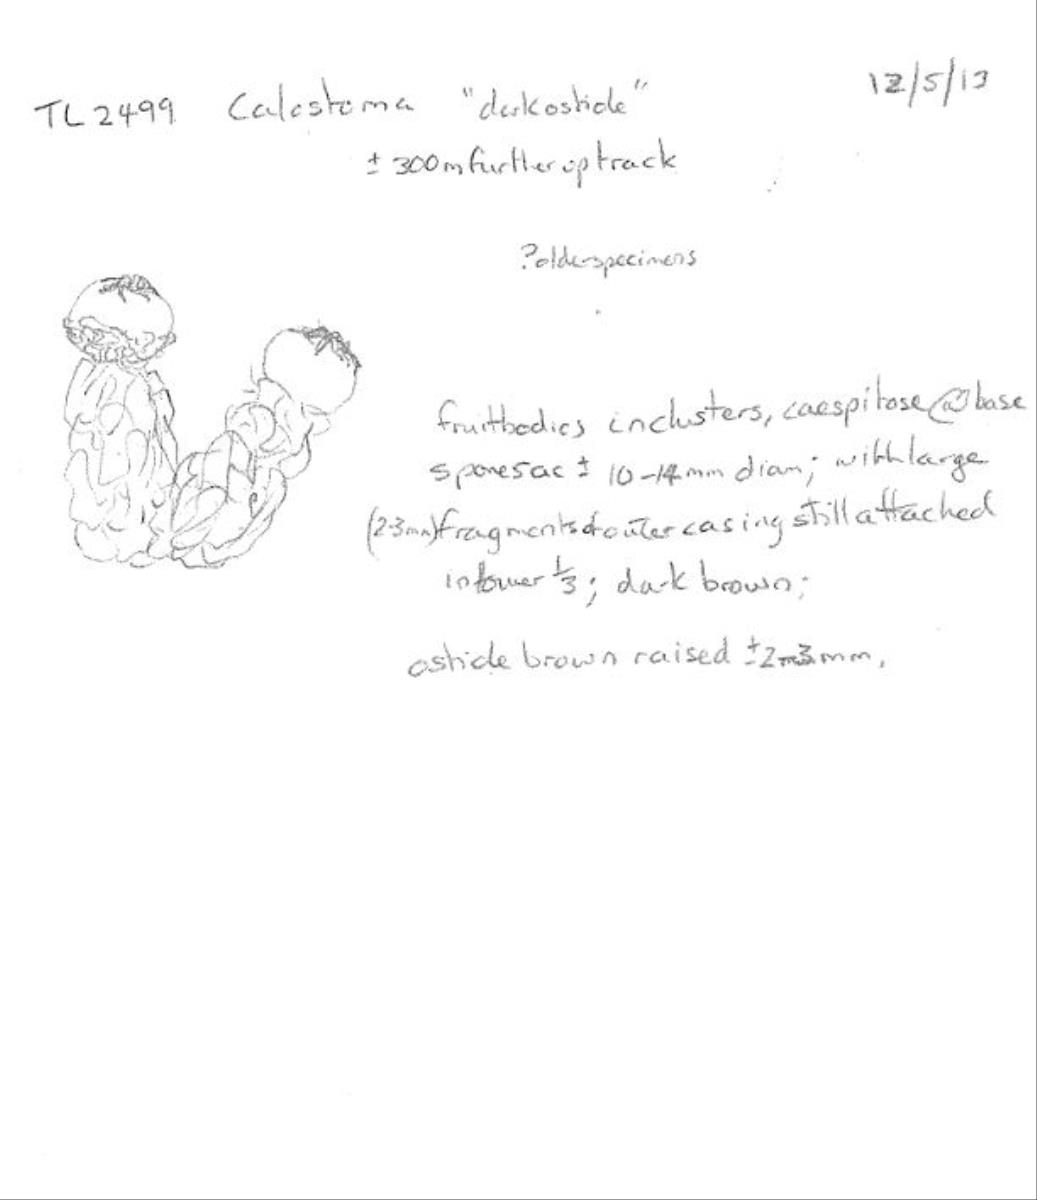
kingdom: Fungi
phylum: Basidiomycota
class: Agaricomycetes
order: Boletales
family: Calostomataceae
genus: Calostoma
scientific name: Calostoma
